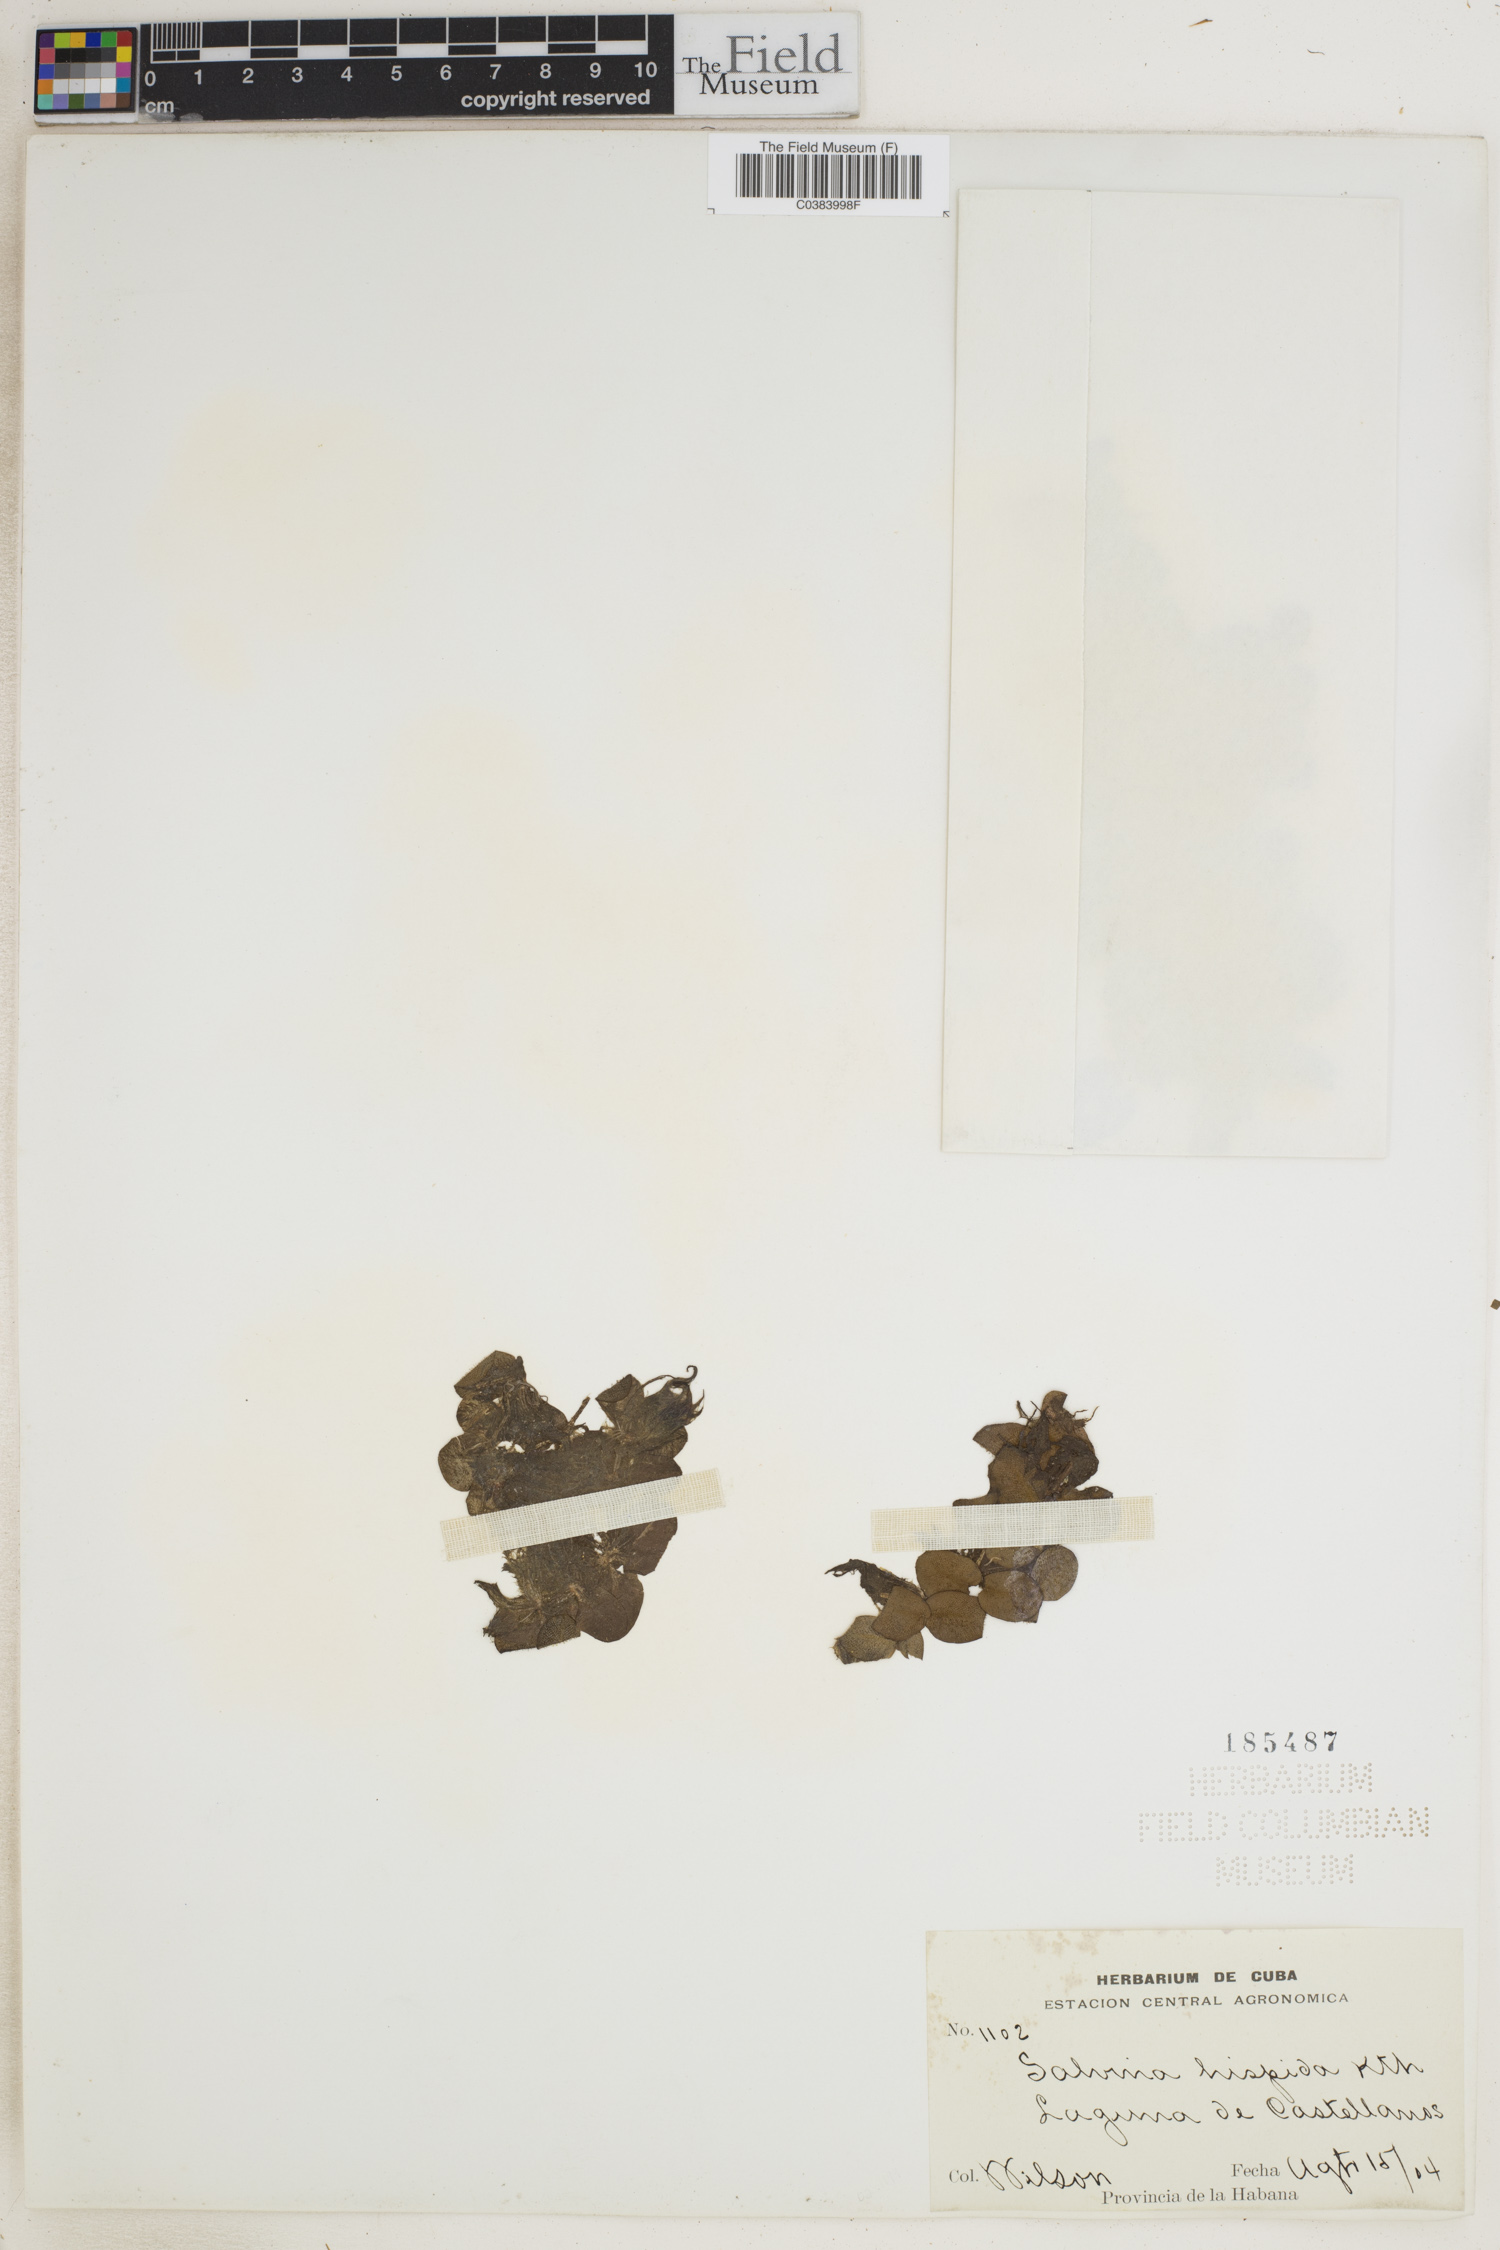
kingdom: Plantae
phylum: Tracheophyta
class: Polypodiopsida
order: Salviniales
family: Salviniaceae
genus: Salvinia
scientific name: Salvinia auriculata
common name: African payal
